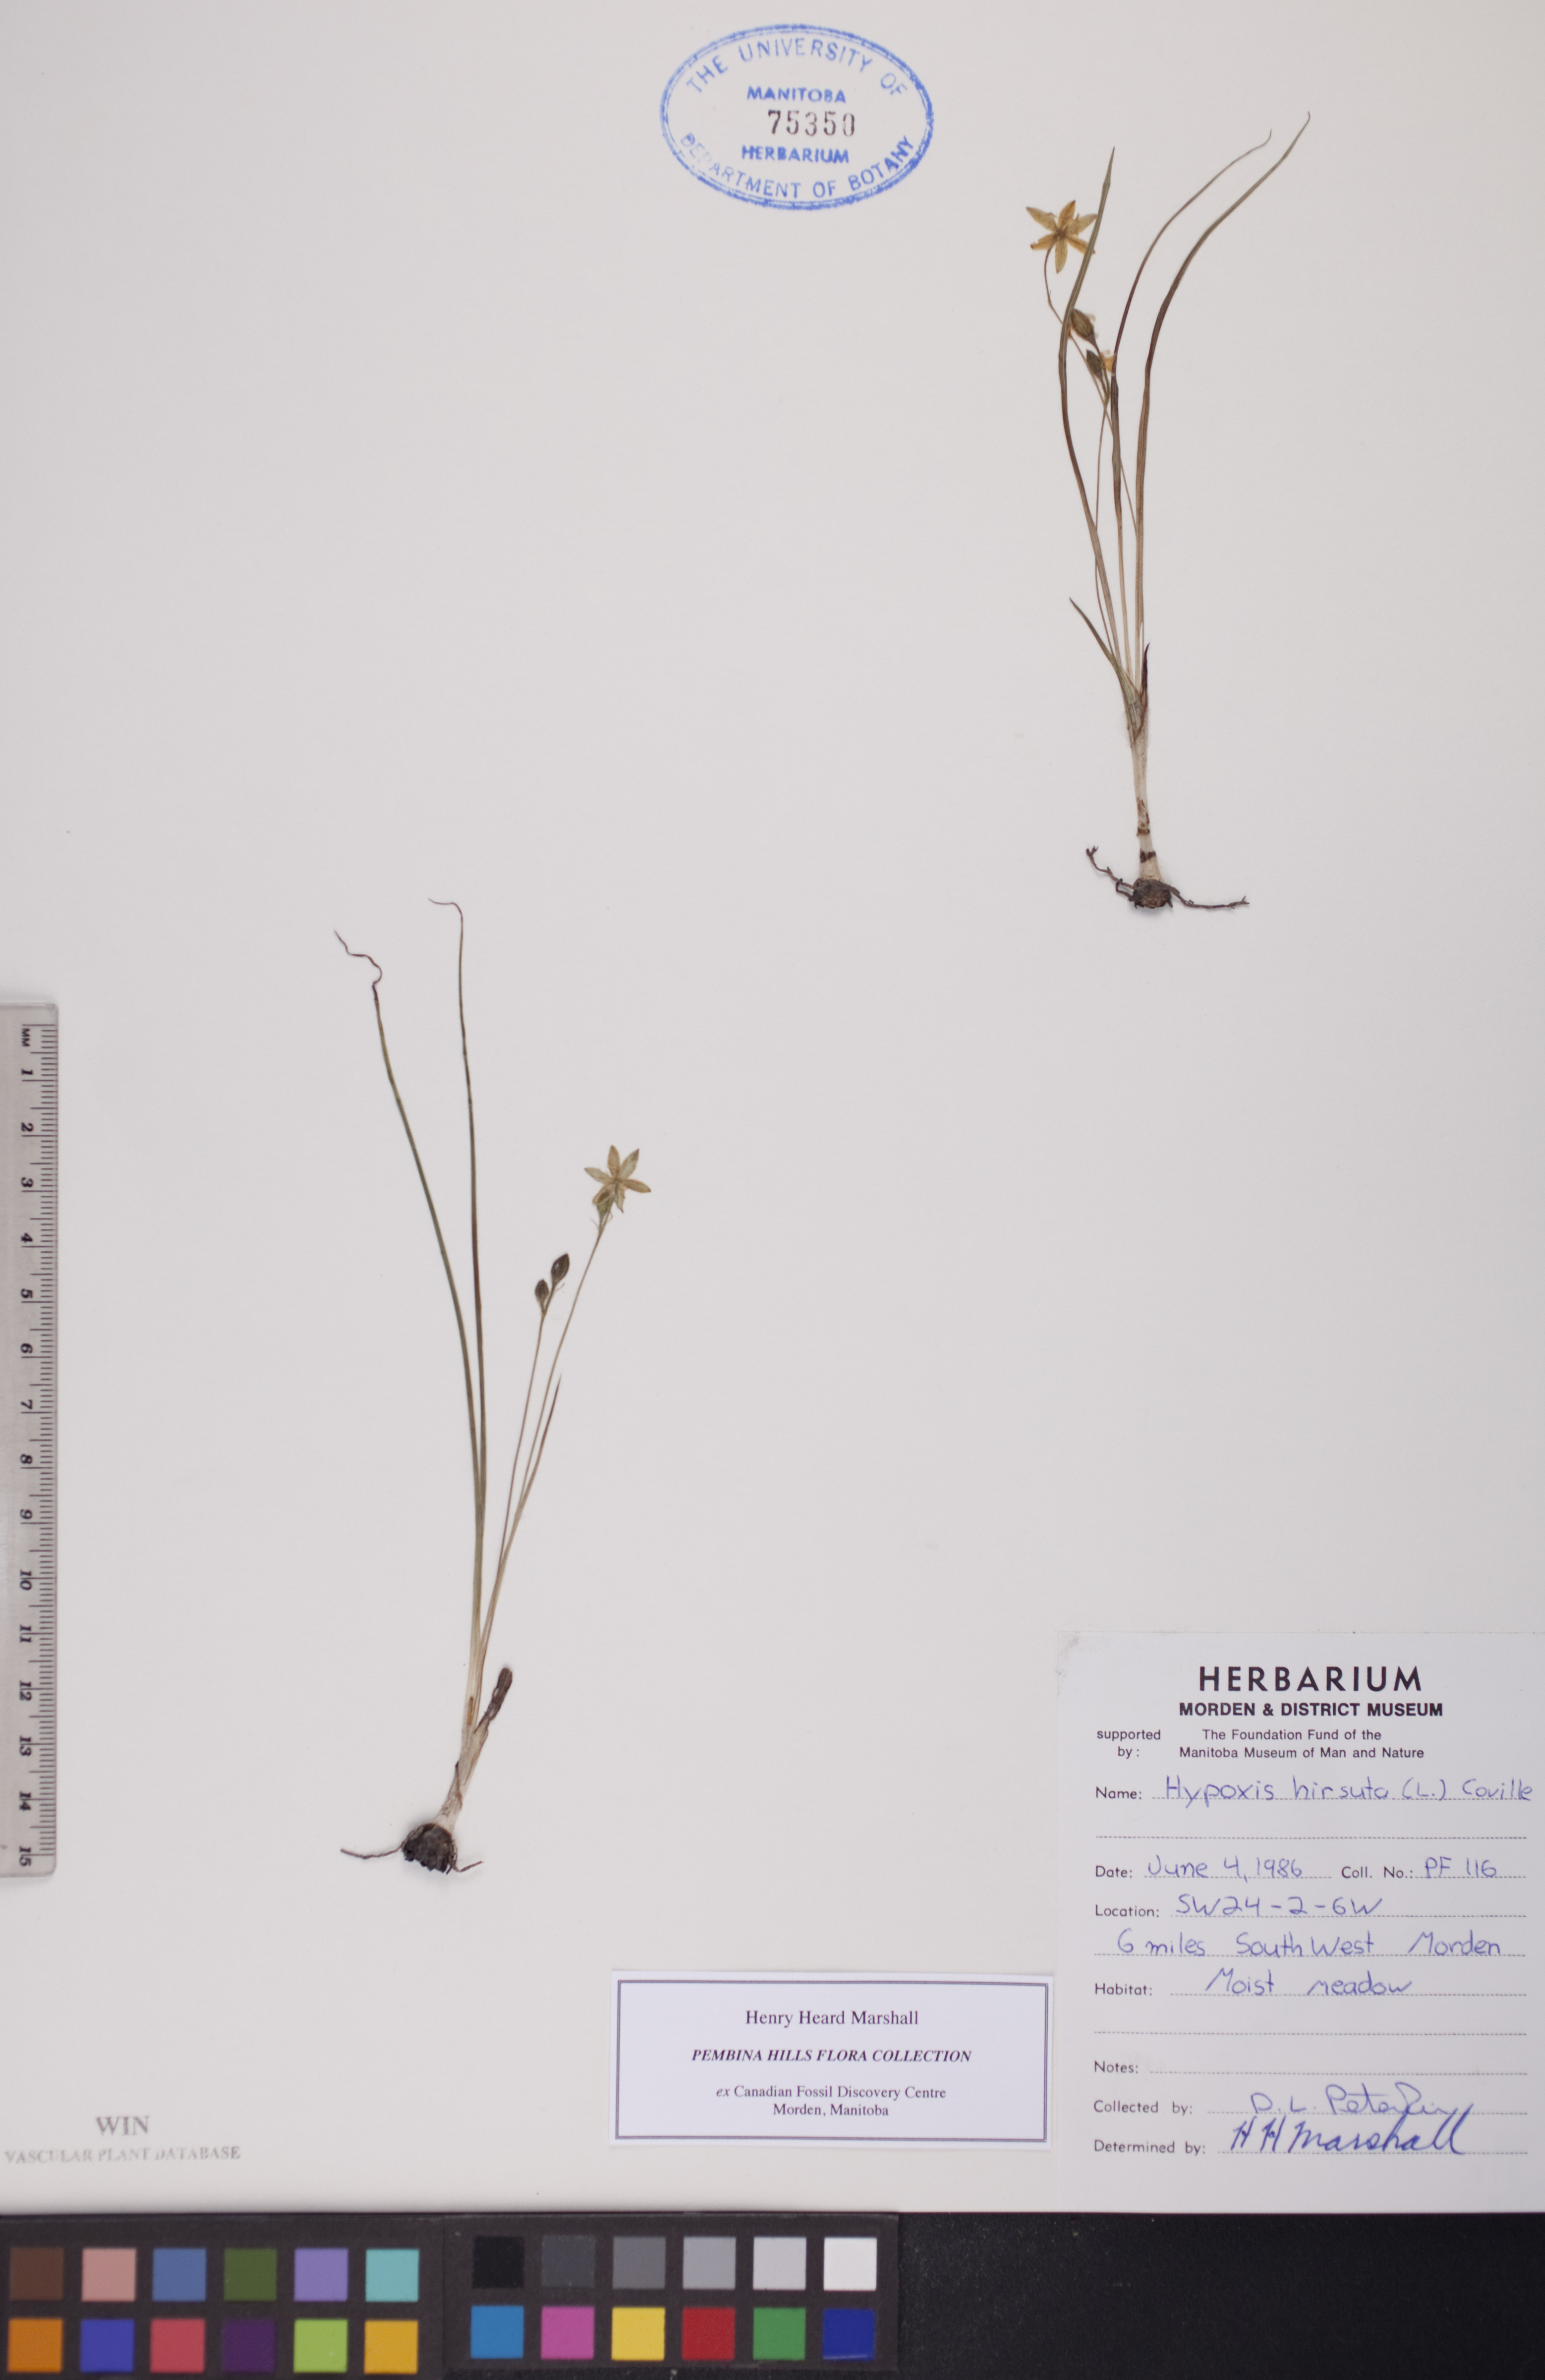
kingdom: Plantae
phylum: Tracheophyta
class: Liliopsida
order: Asparagales
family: Hypoxidaceae
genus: Hypoxis
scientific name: Hypoxis hirsuta
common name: Common goldstar
